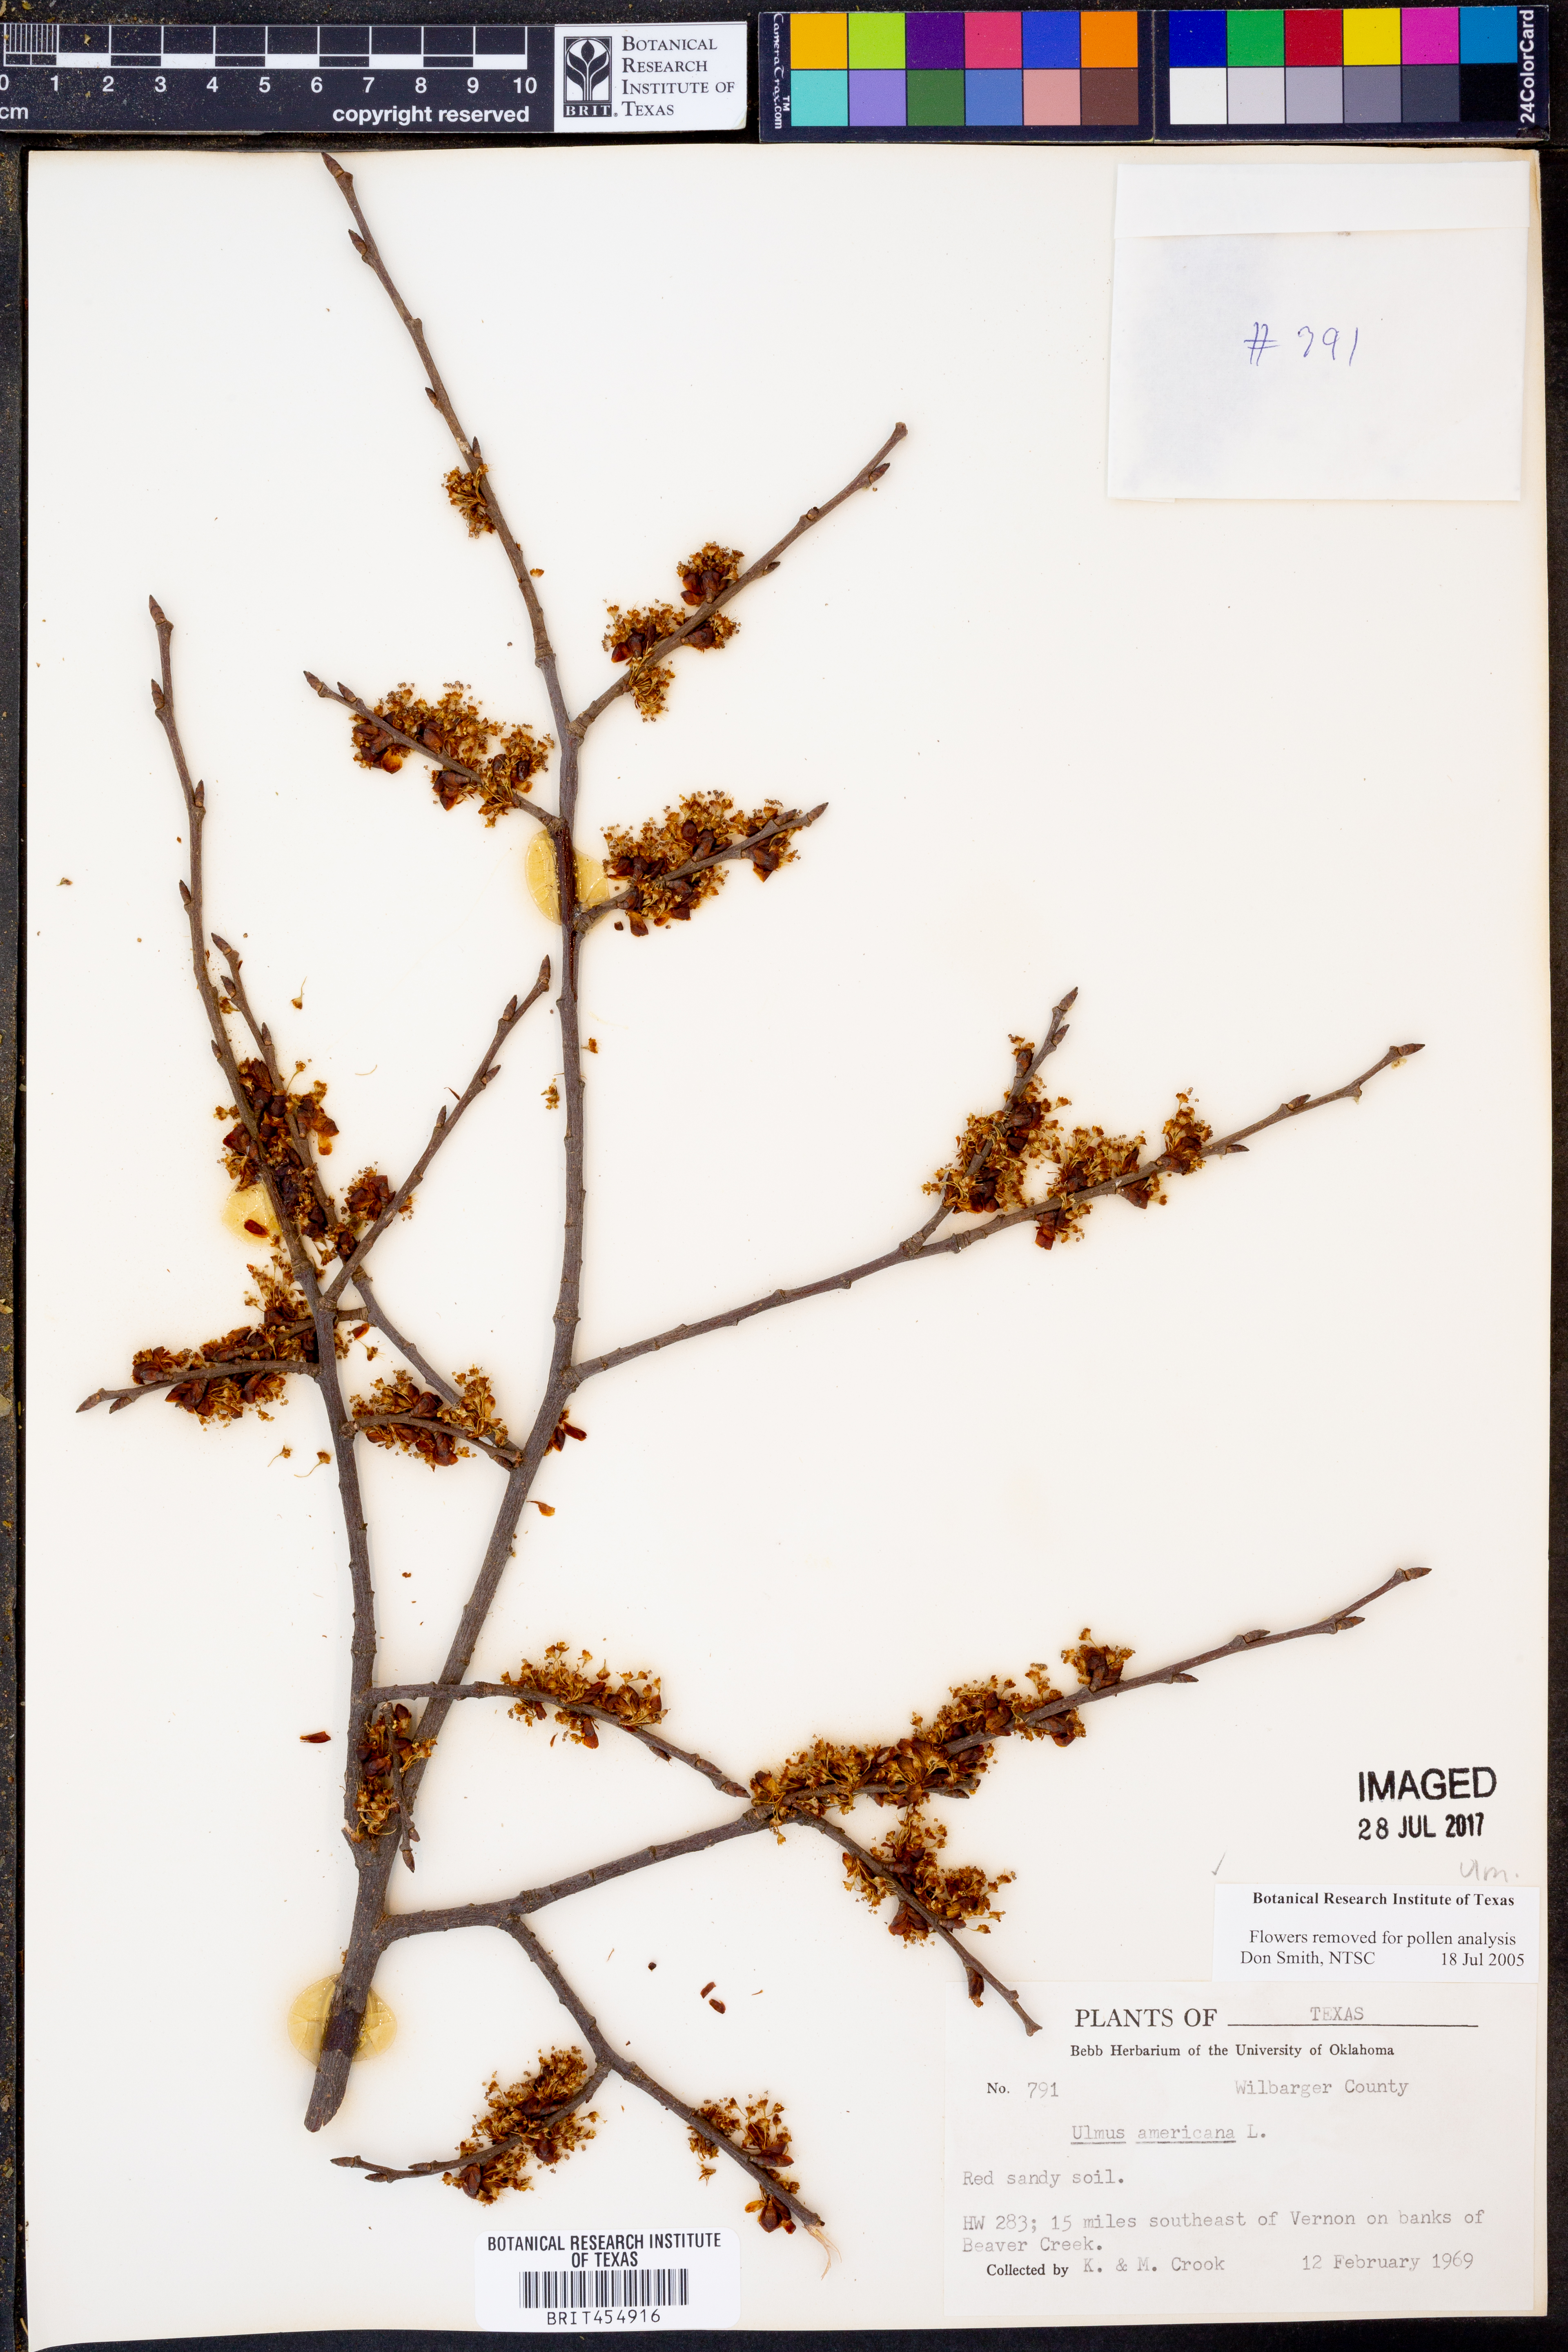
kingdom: Plantae
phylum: Tracheophyta
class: Magnoliopsida
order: Rosales
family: Ulmaceae
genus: Ulmus
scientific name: Ulmus americana
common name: American elm
